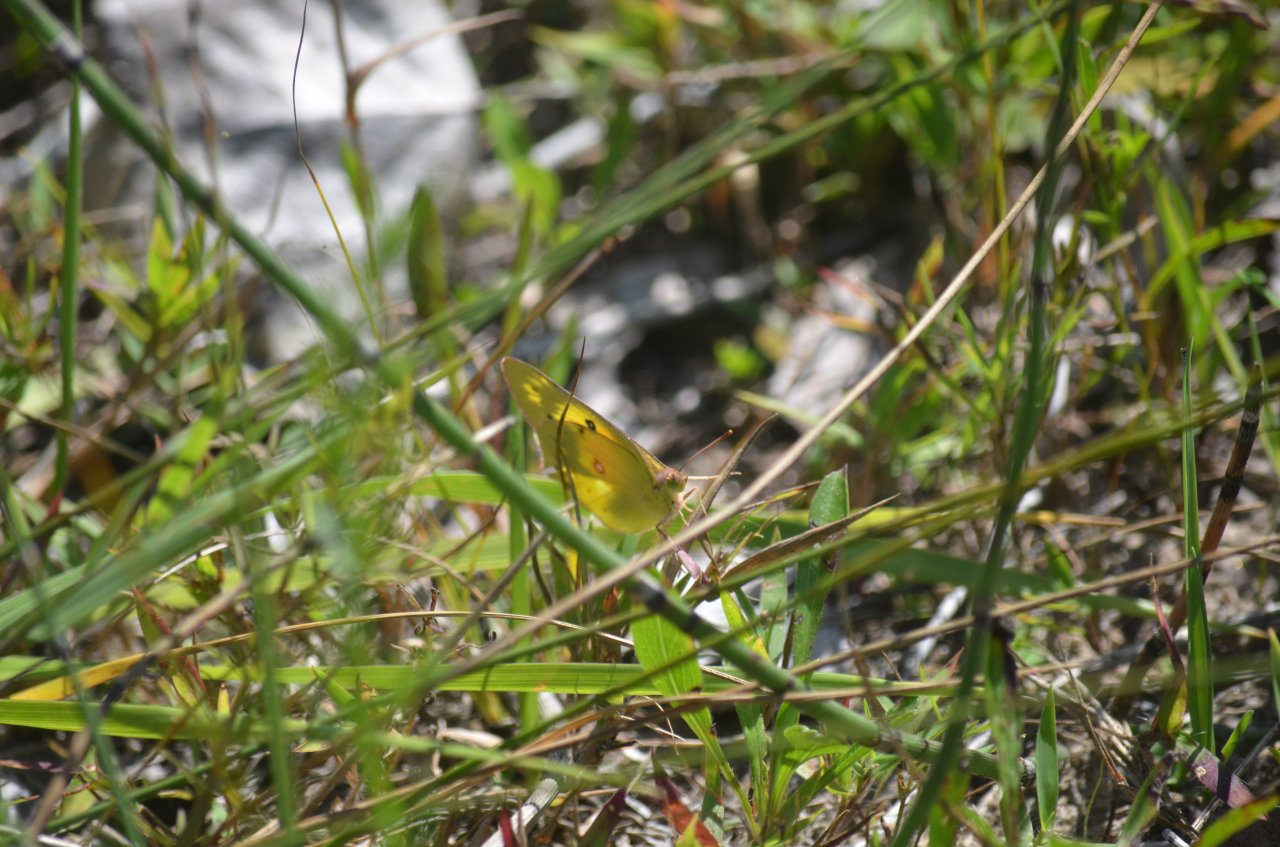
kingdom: Animalia
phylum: Arthropoda
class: Insecta
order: Lepidoptera
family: Pieridae
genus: Colias
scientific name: Colias
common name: Clouded Yellows
